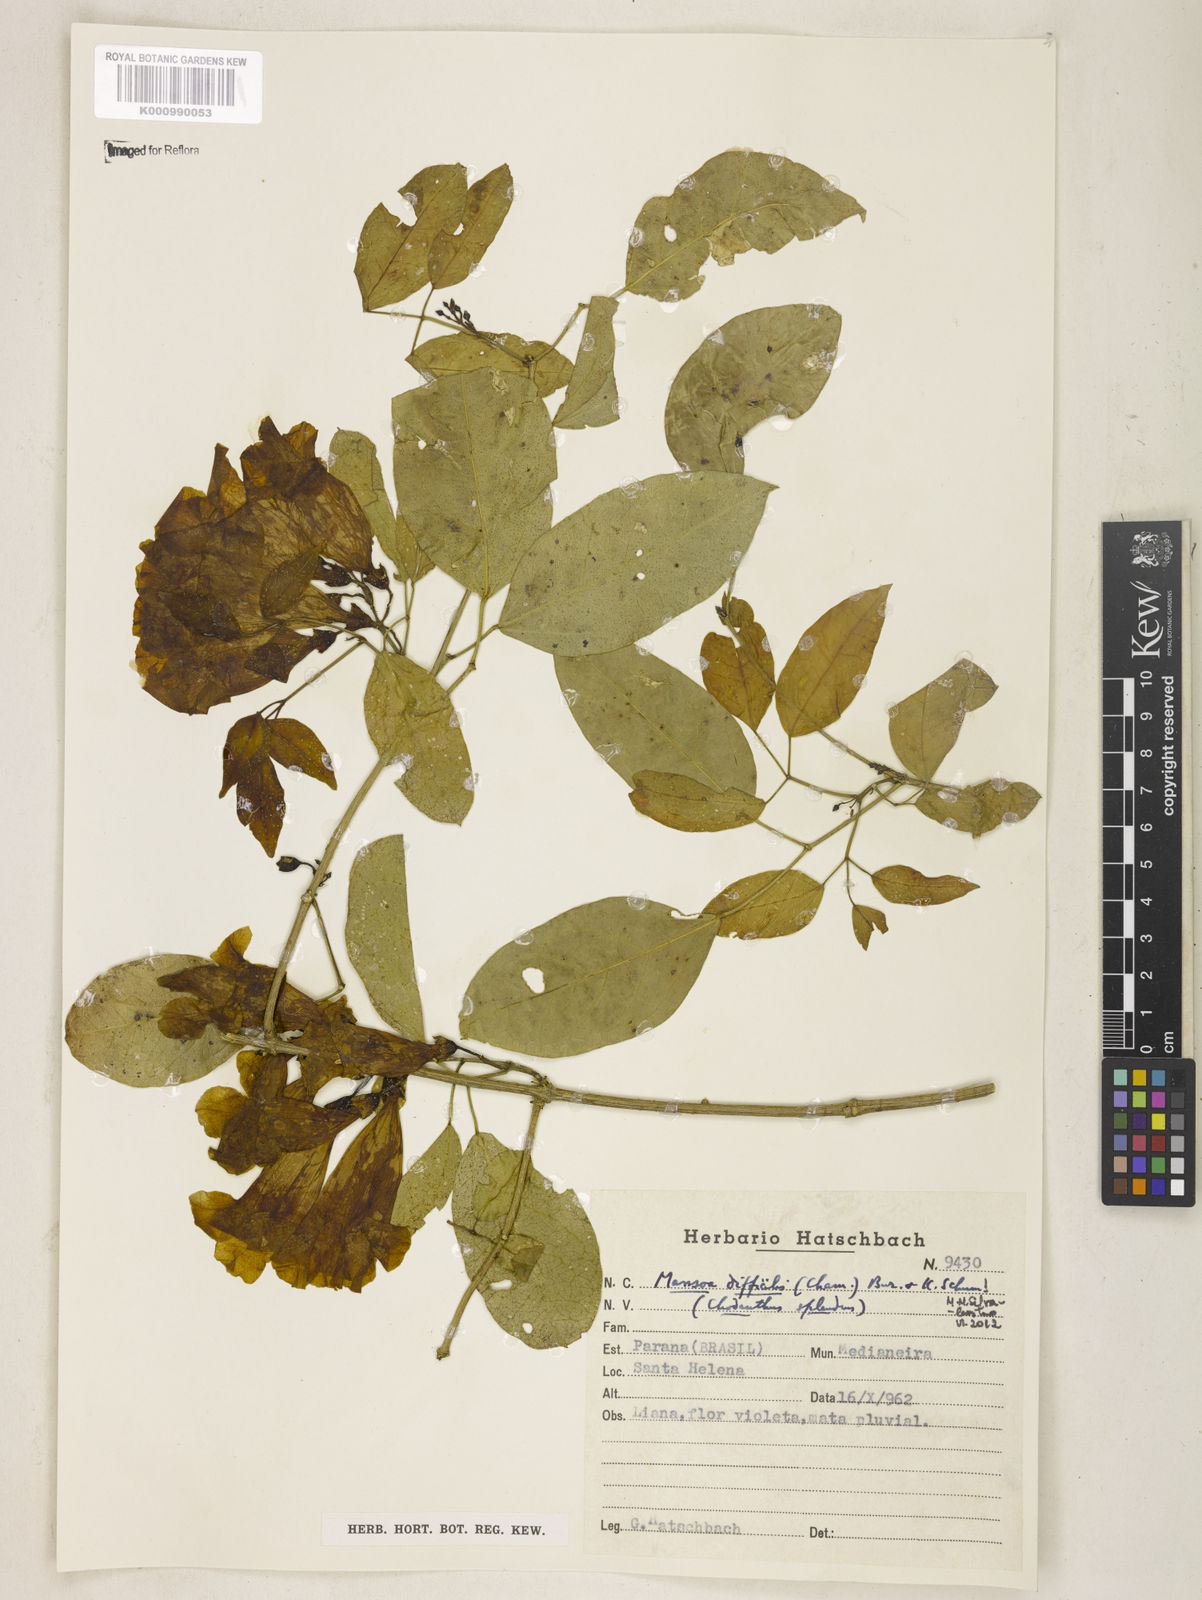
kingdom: Plantae
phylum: Tracheophyta
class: Magnoliopsida
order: Lamiales
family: Bignoniaceae
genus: Mansoa
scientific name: Mansoa difficilis
